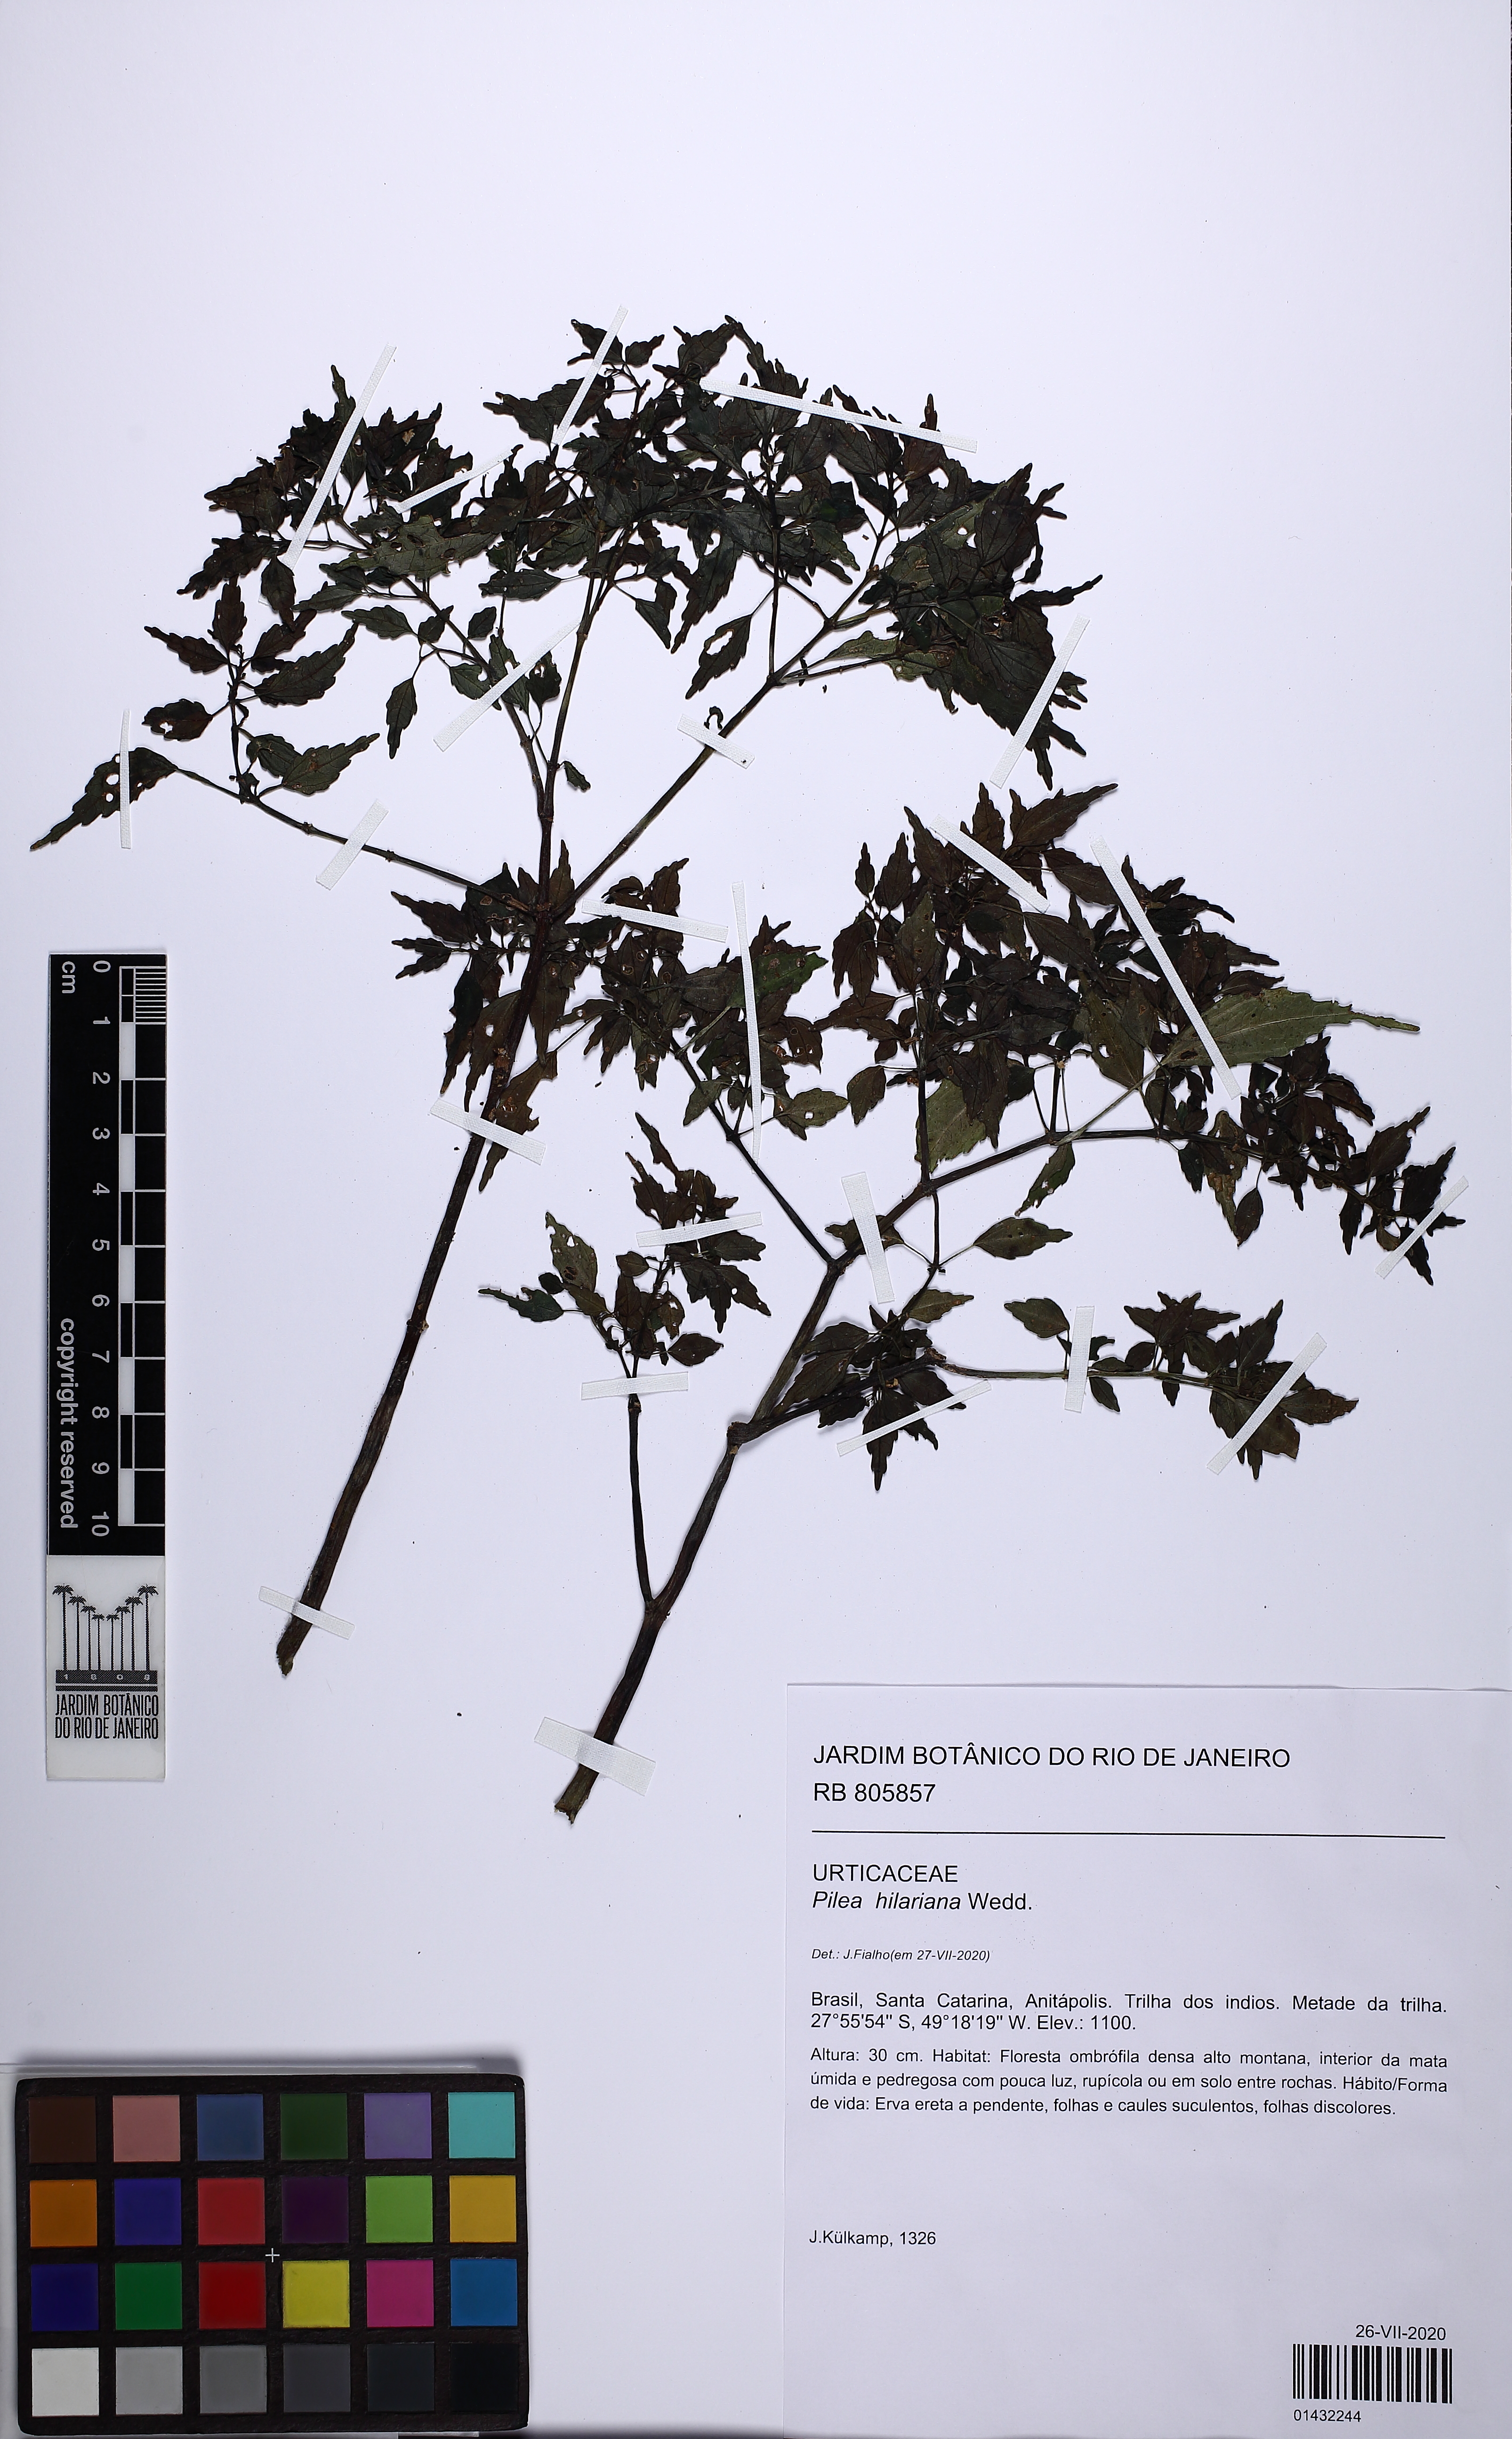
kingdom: Plantae
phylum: Tracheophyta
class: Magnoliopsida
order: Rosales
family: Urticaceae
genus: Pilea
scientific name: Pilea hilariana
